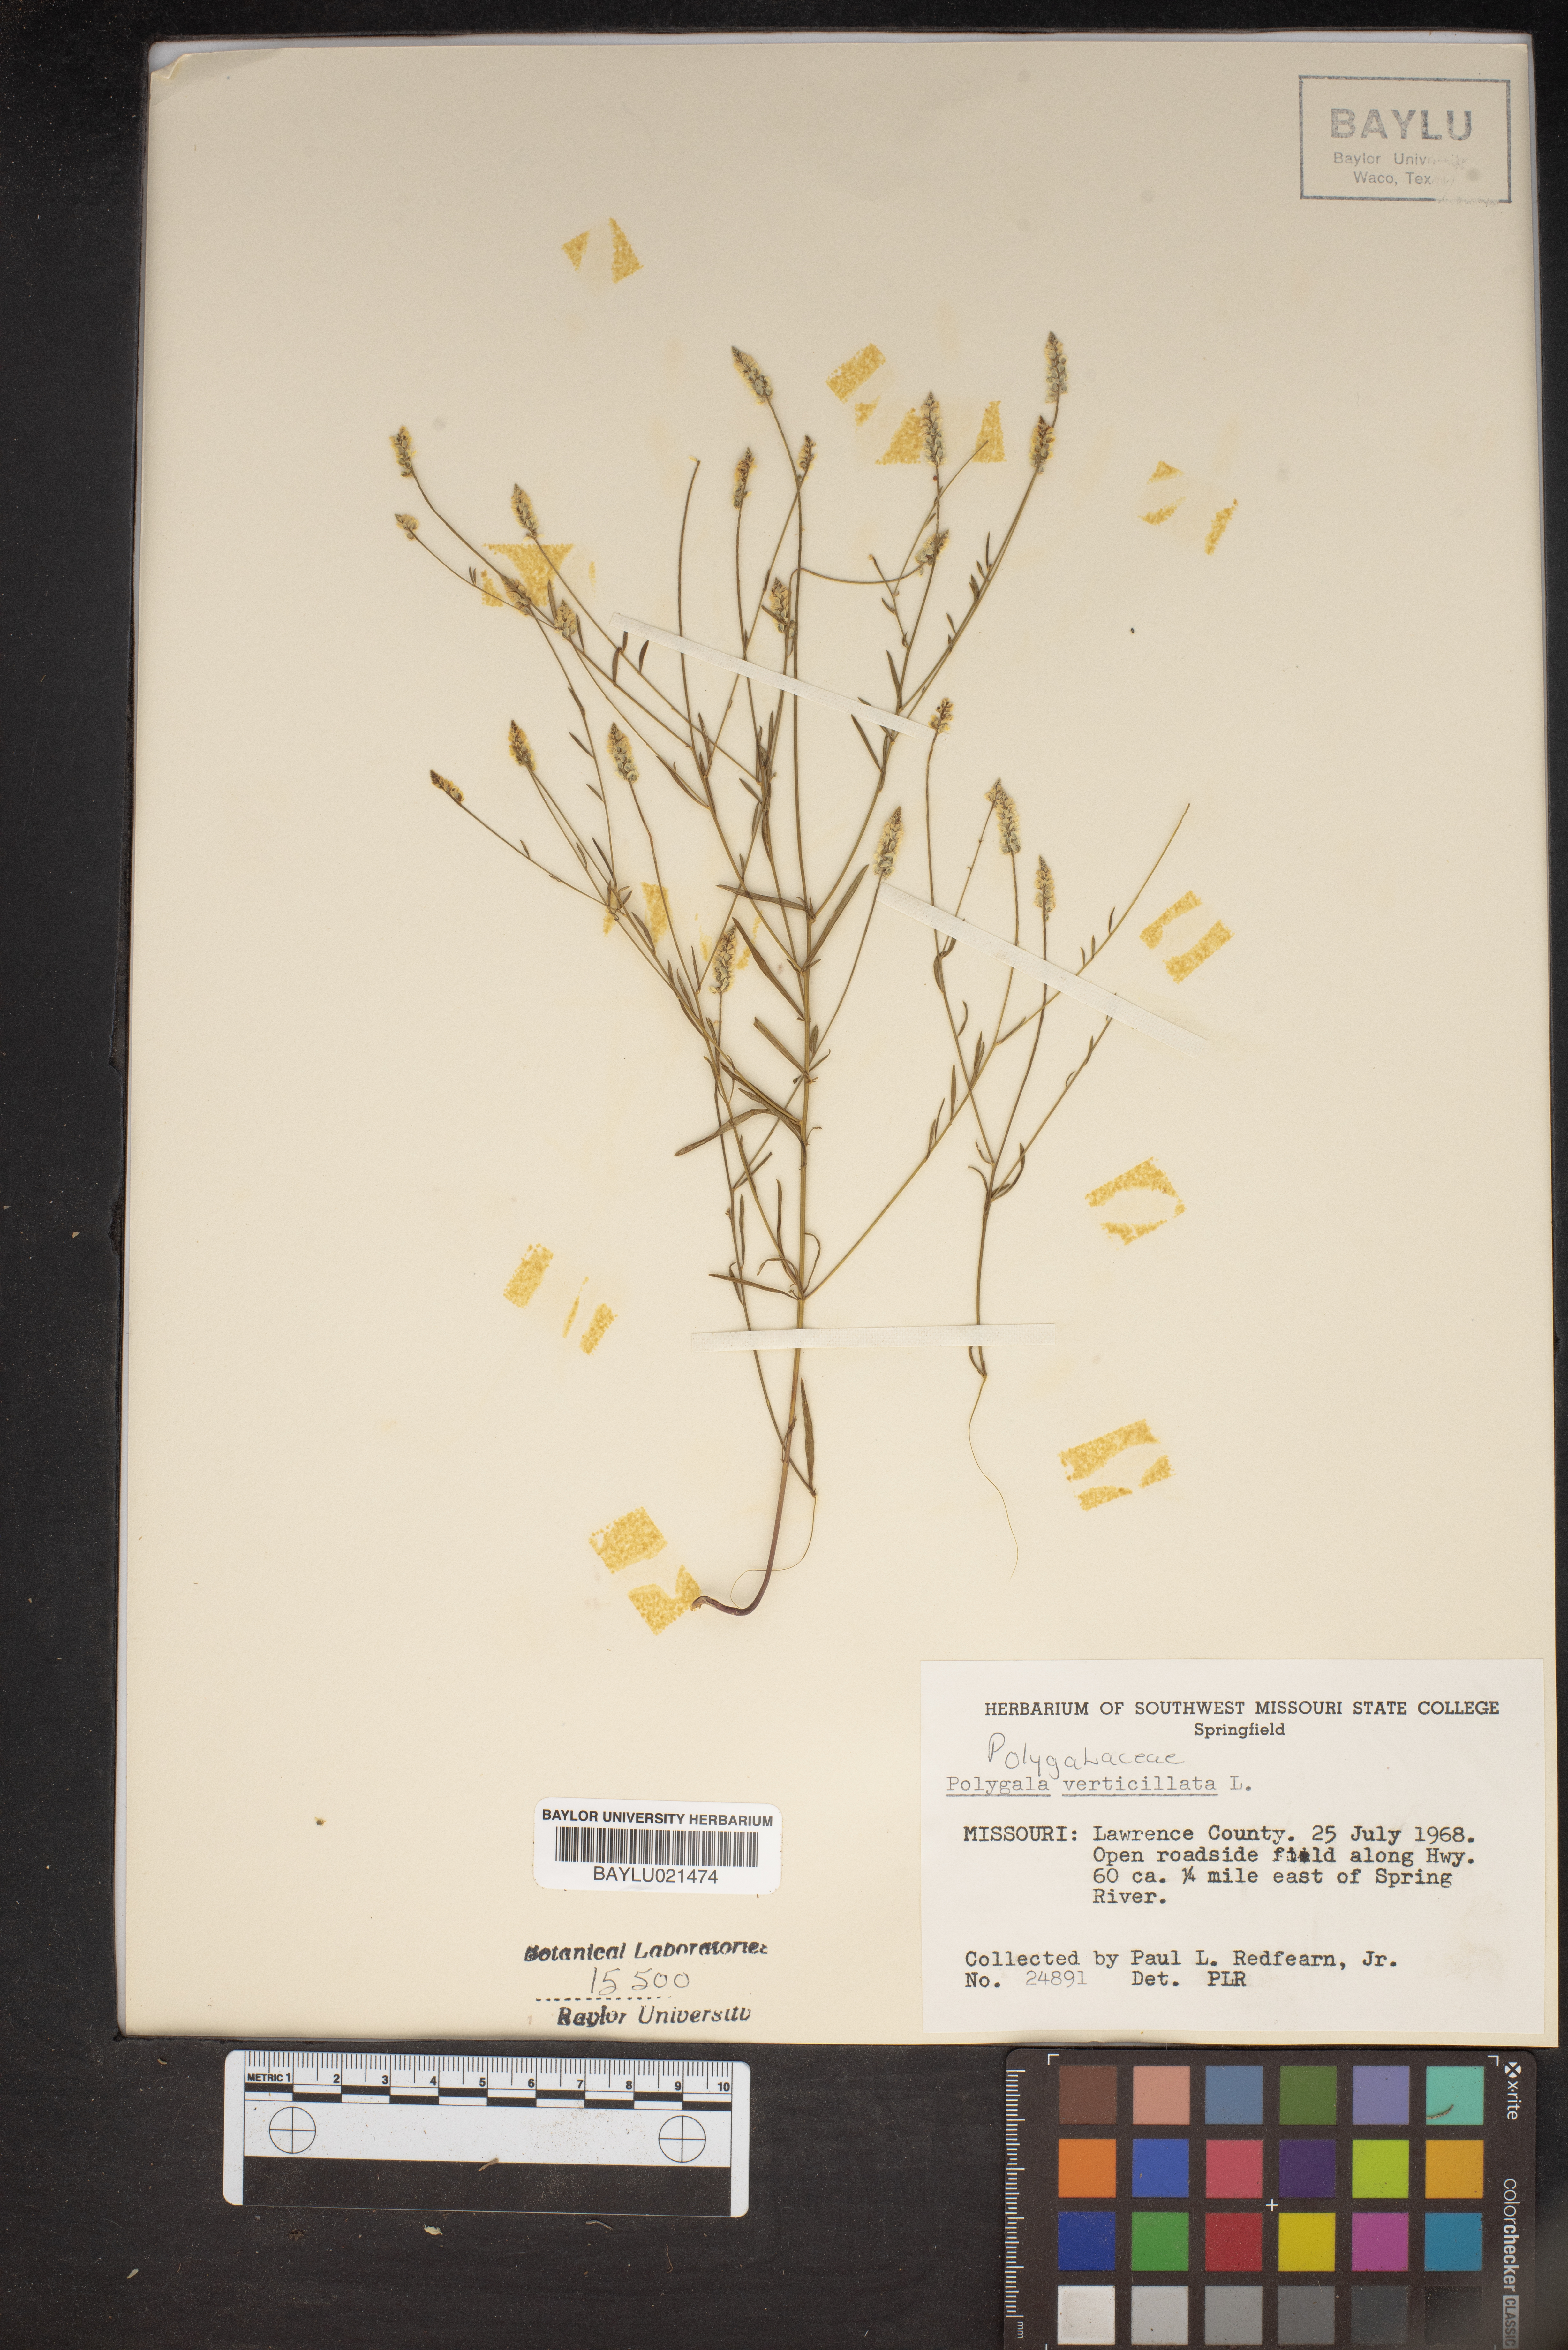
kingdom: Plantae
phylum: Tracheophyta
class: Magnoliopsida
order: Fabales
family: Polygalaceae
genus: Polygala
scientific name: Polygala verticillata
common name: Whorl milkwort
